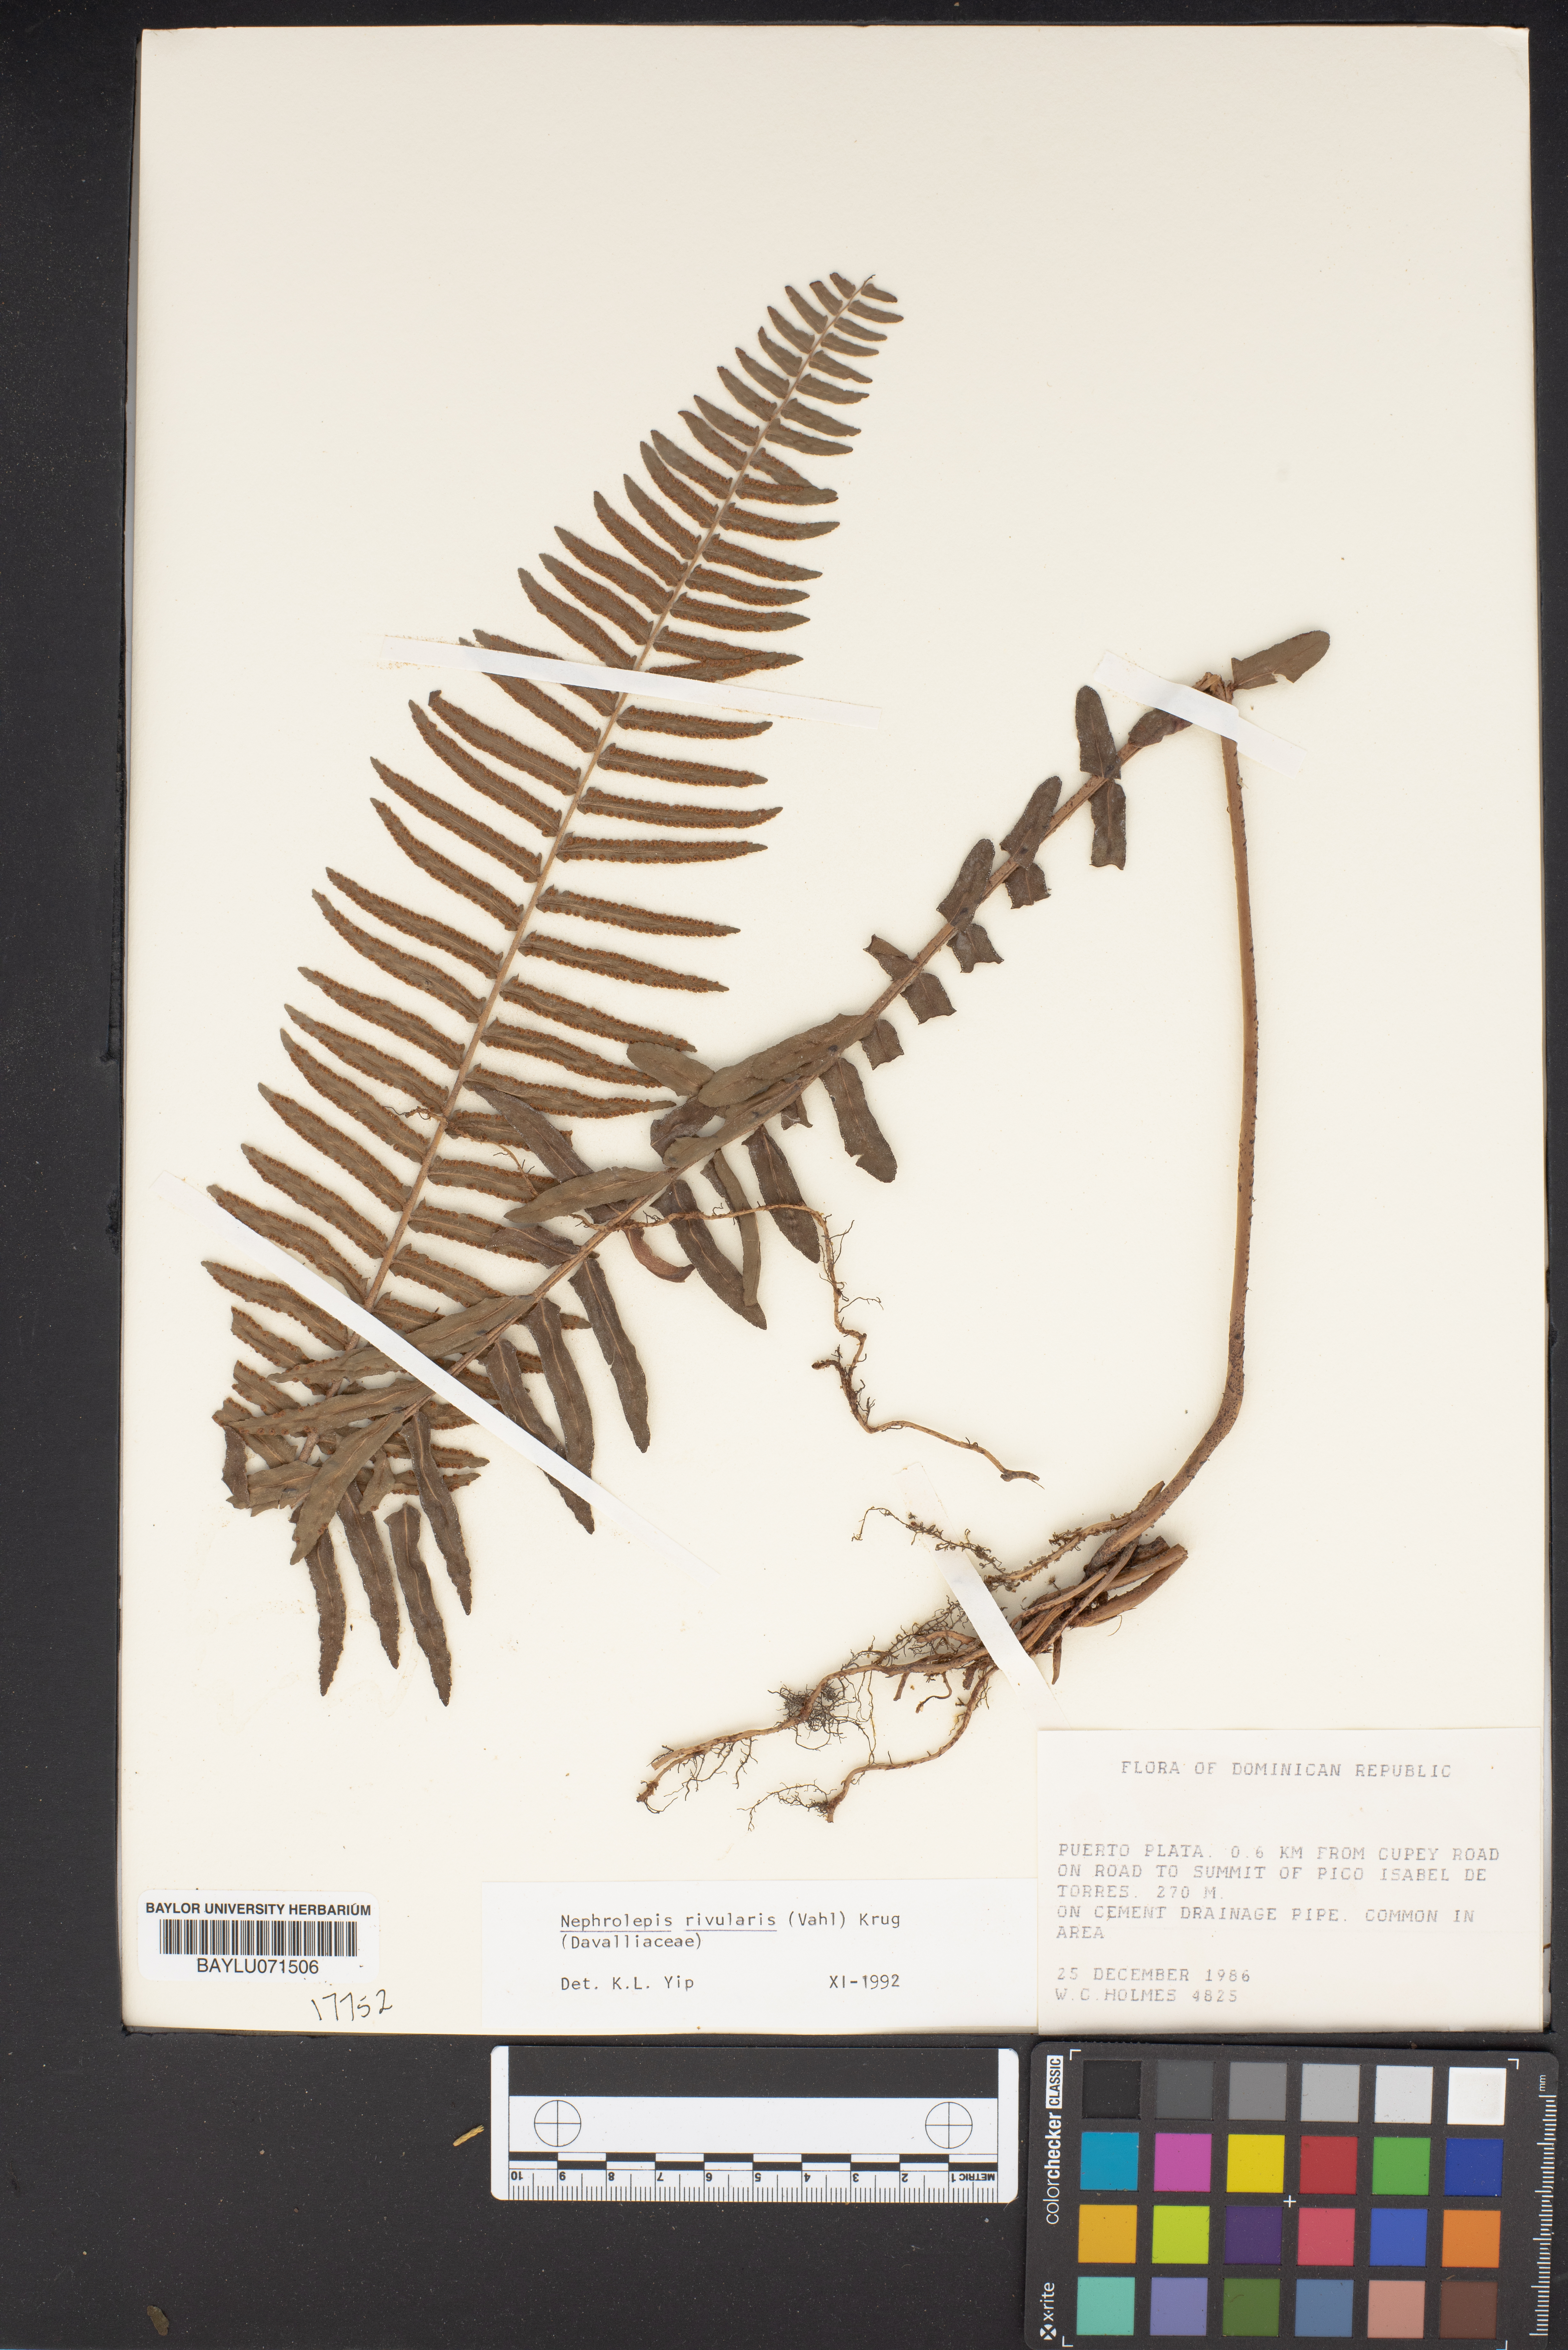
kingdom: Plantae
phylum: Tracheophyta
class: Polypodiopsida
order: Polypodiales
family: Nephrolepidaceae
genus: Nephrolepis
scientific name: Nephrolepis rivularis
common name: Streamside swordfern
